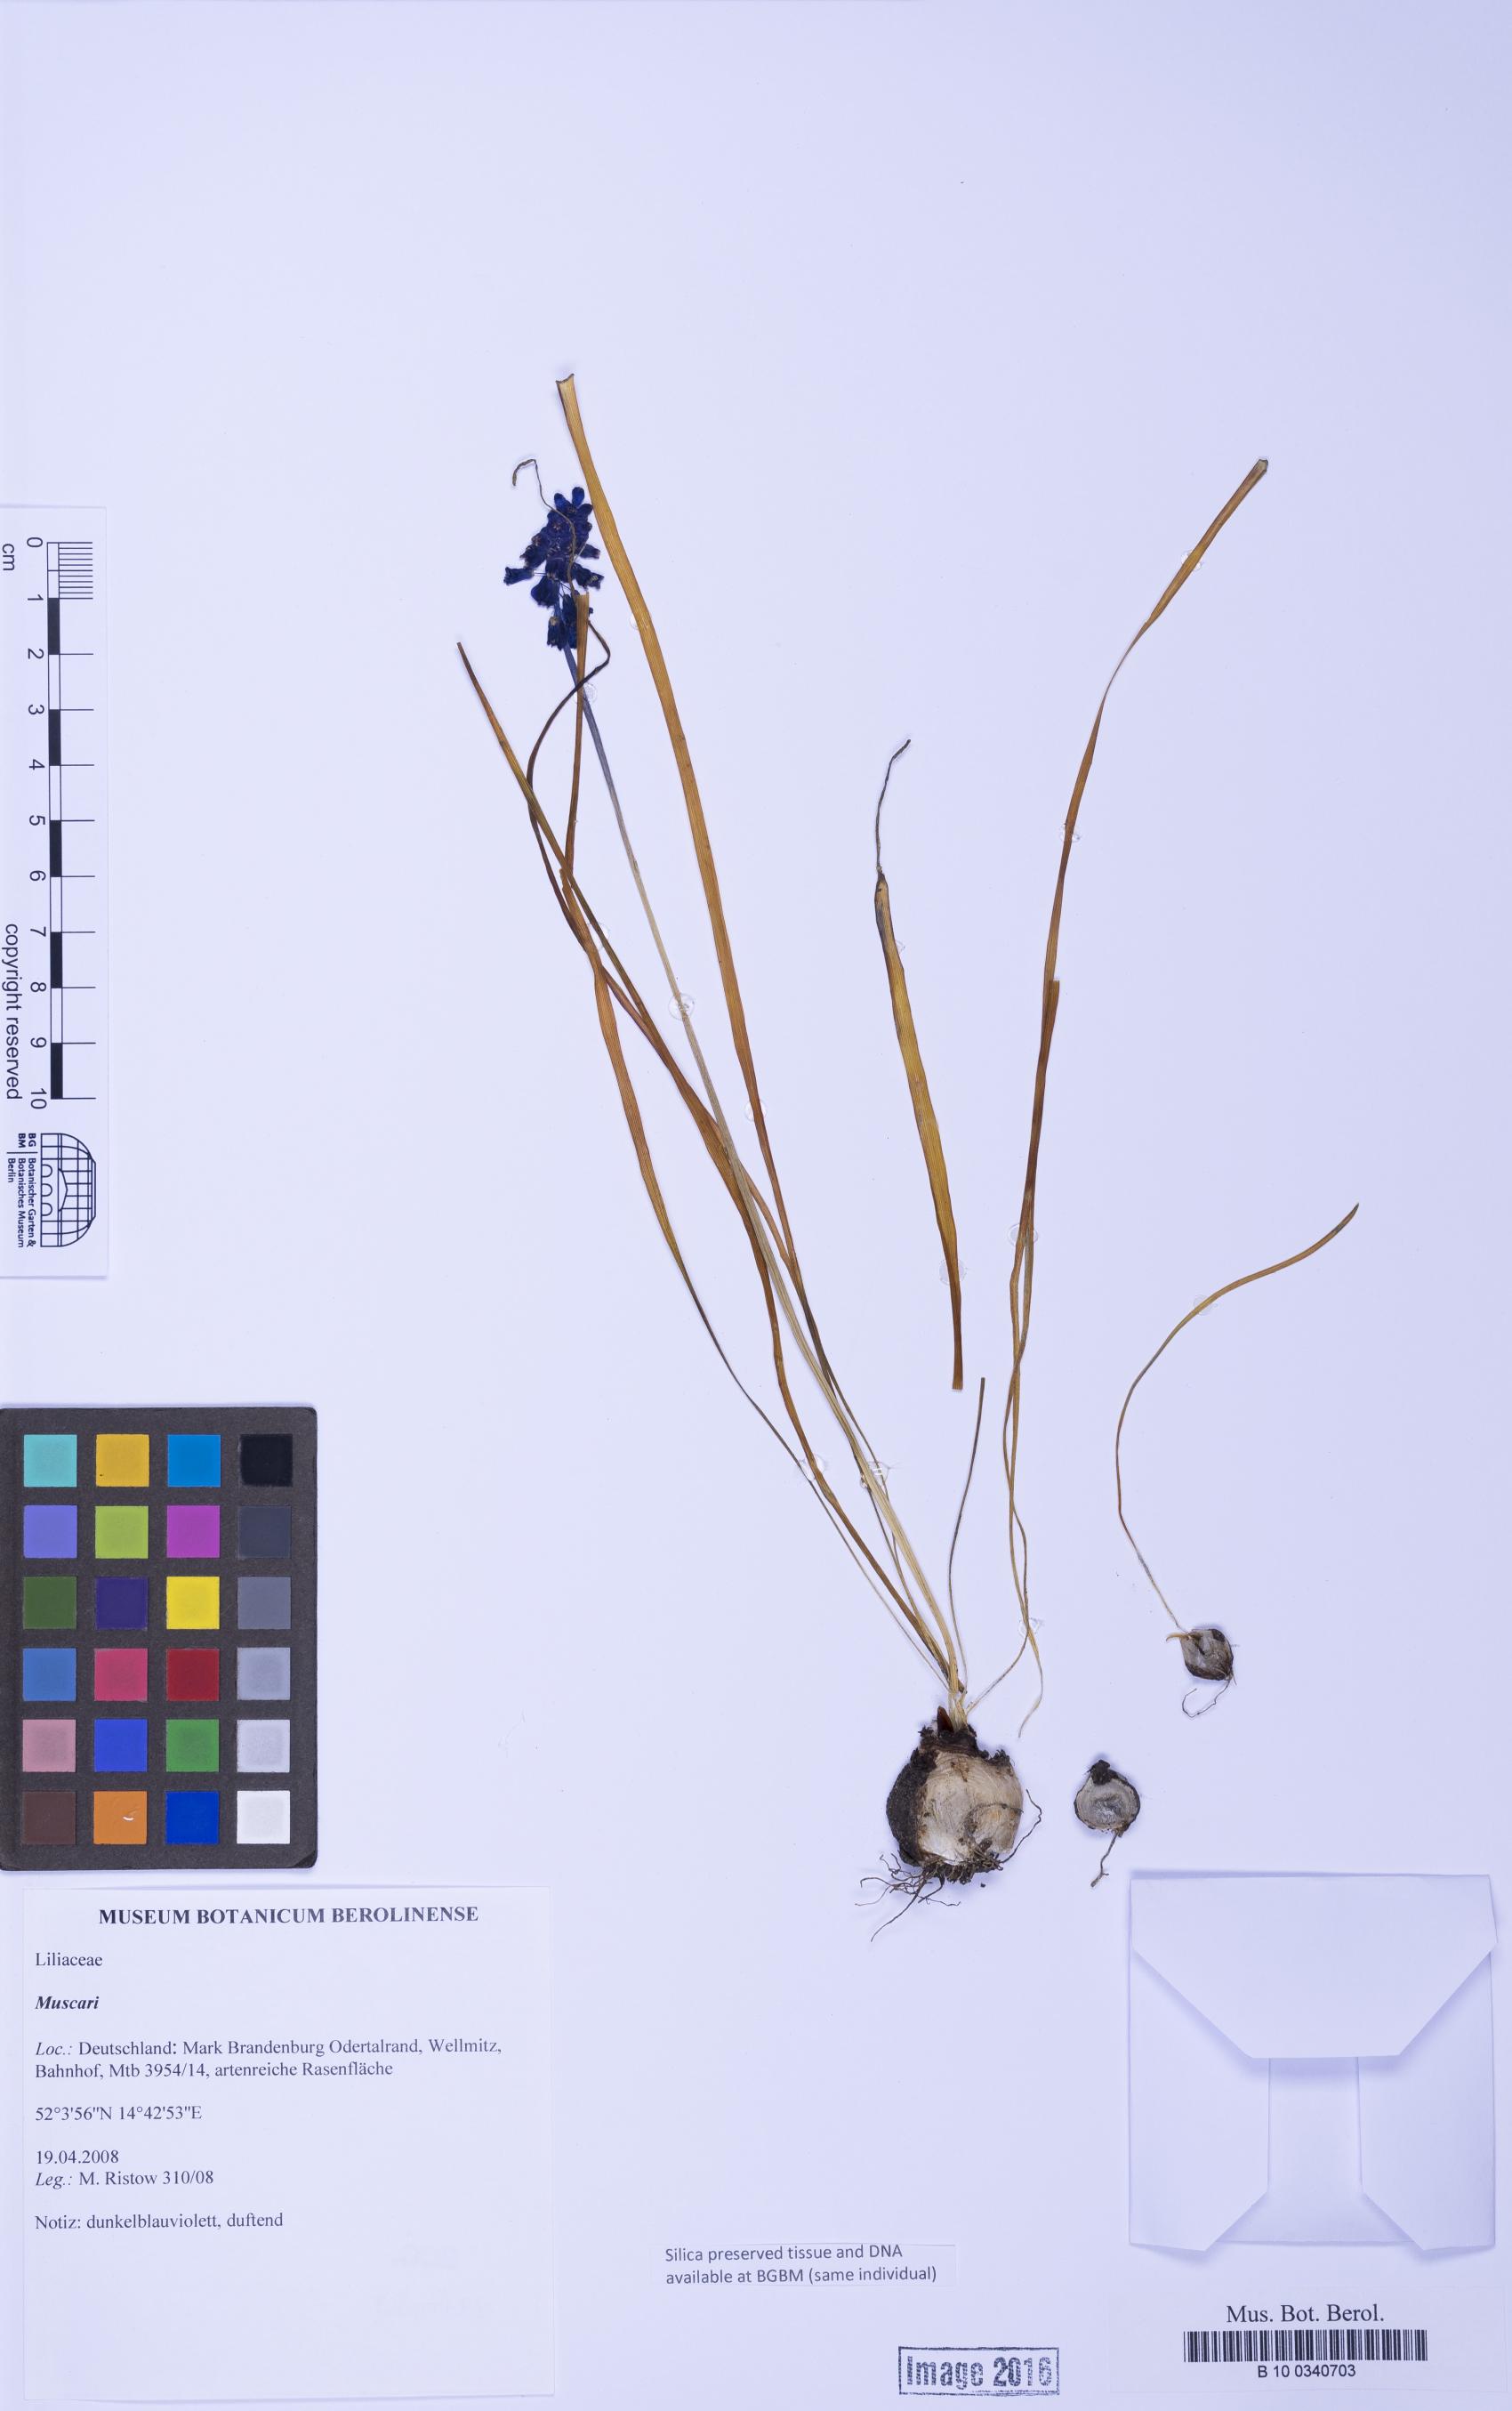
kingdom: Plantae
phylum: Tracheophyta
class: Liliopsida
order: Asparagales
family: Asparagaceae
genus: Muscari
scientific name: Muscari
